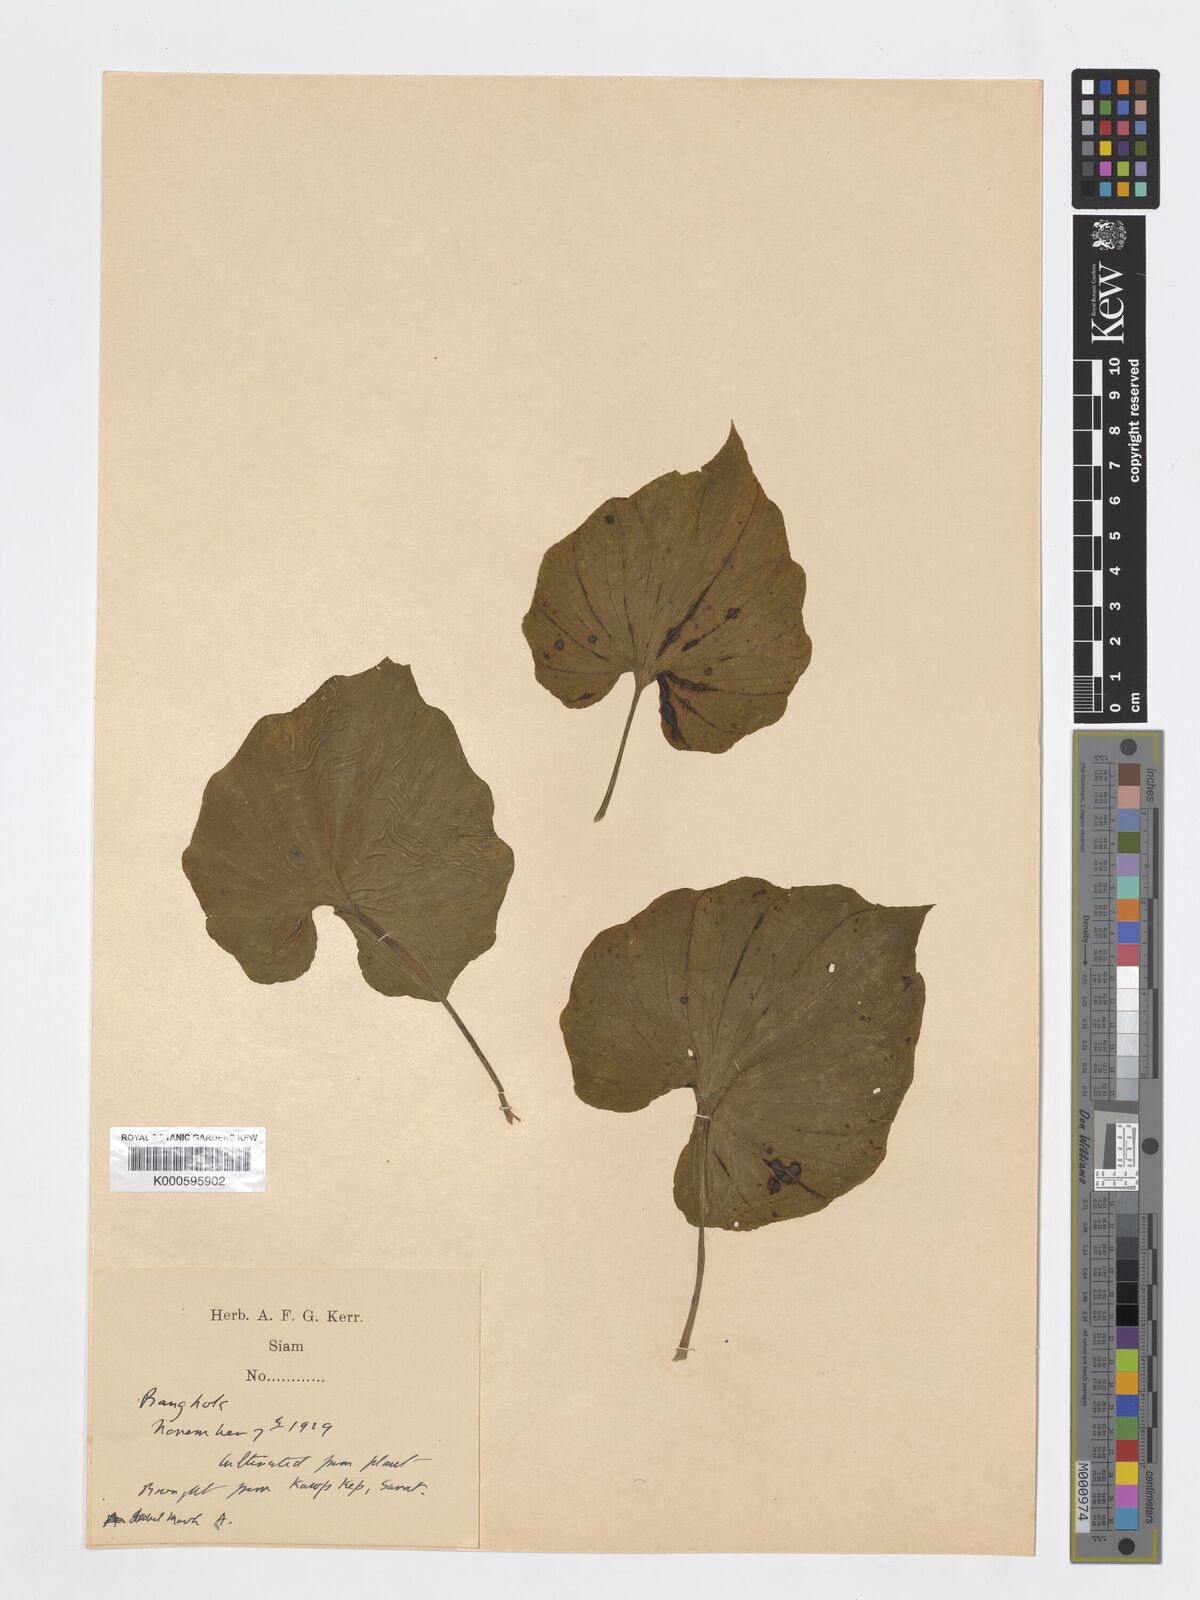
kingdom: Plantae
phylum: Tracheophyta
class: Liliopsida
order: Asparagales
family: Orchidaceae
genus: Nervilia
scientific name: Nervilia maculata
